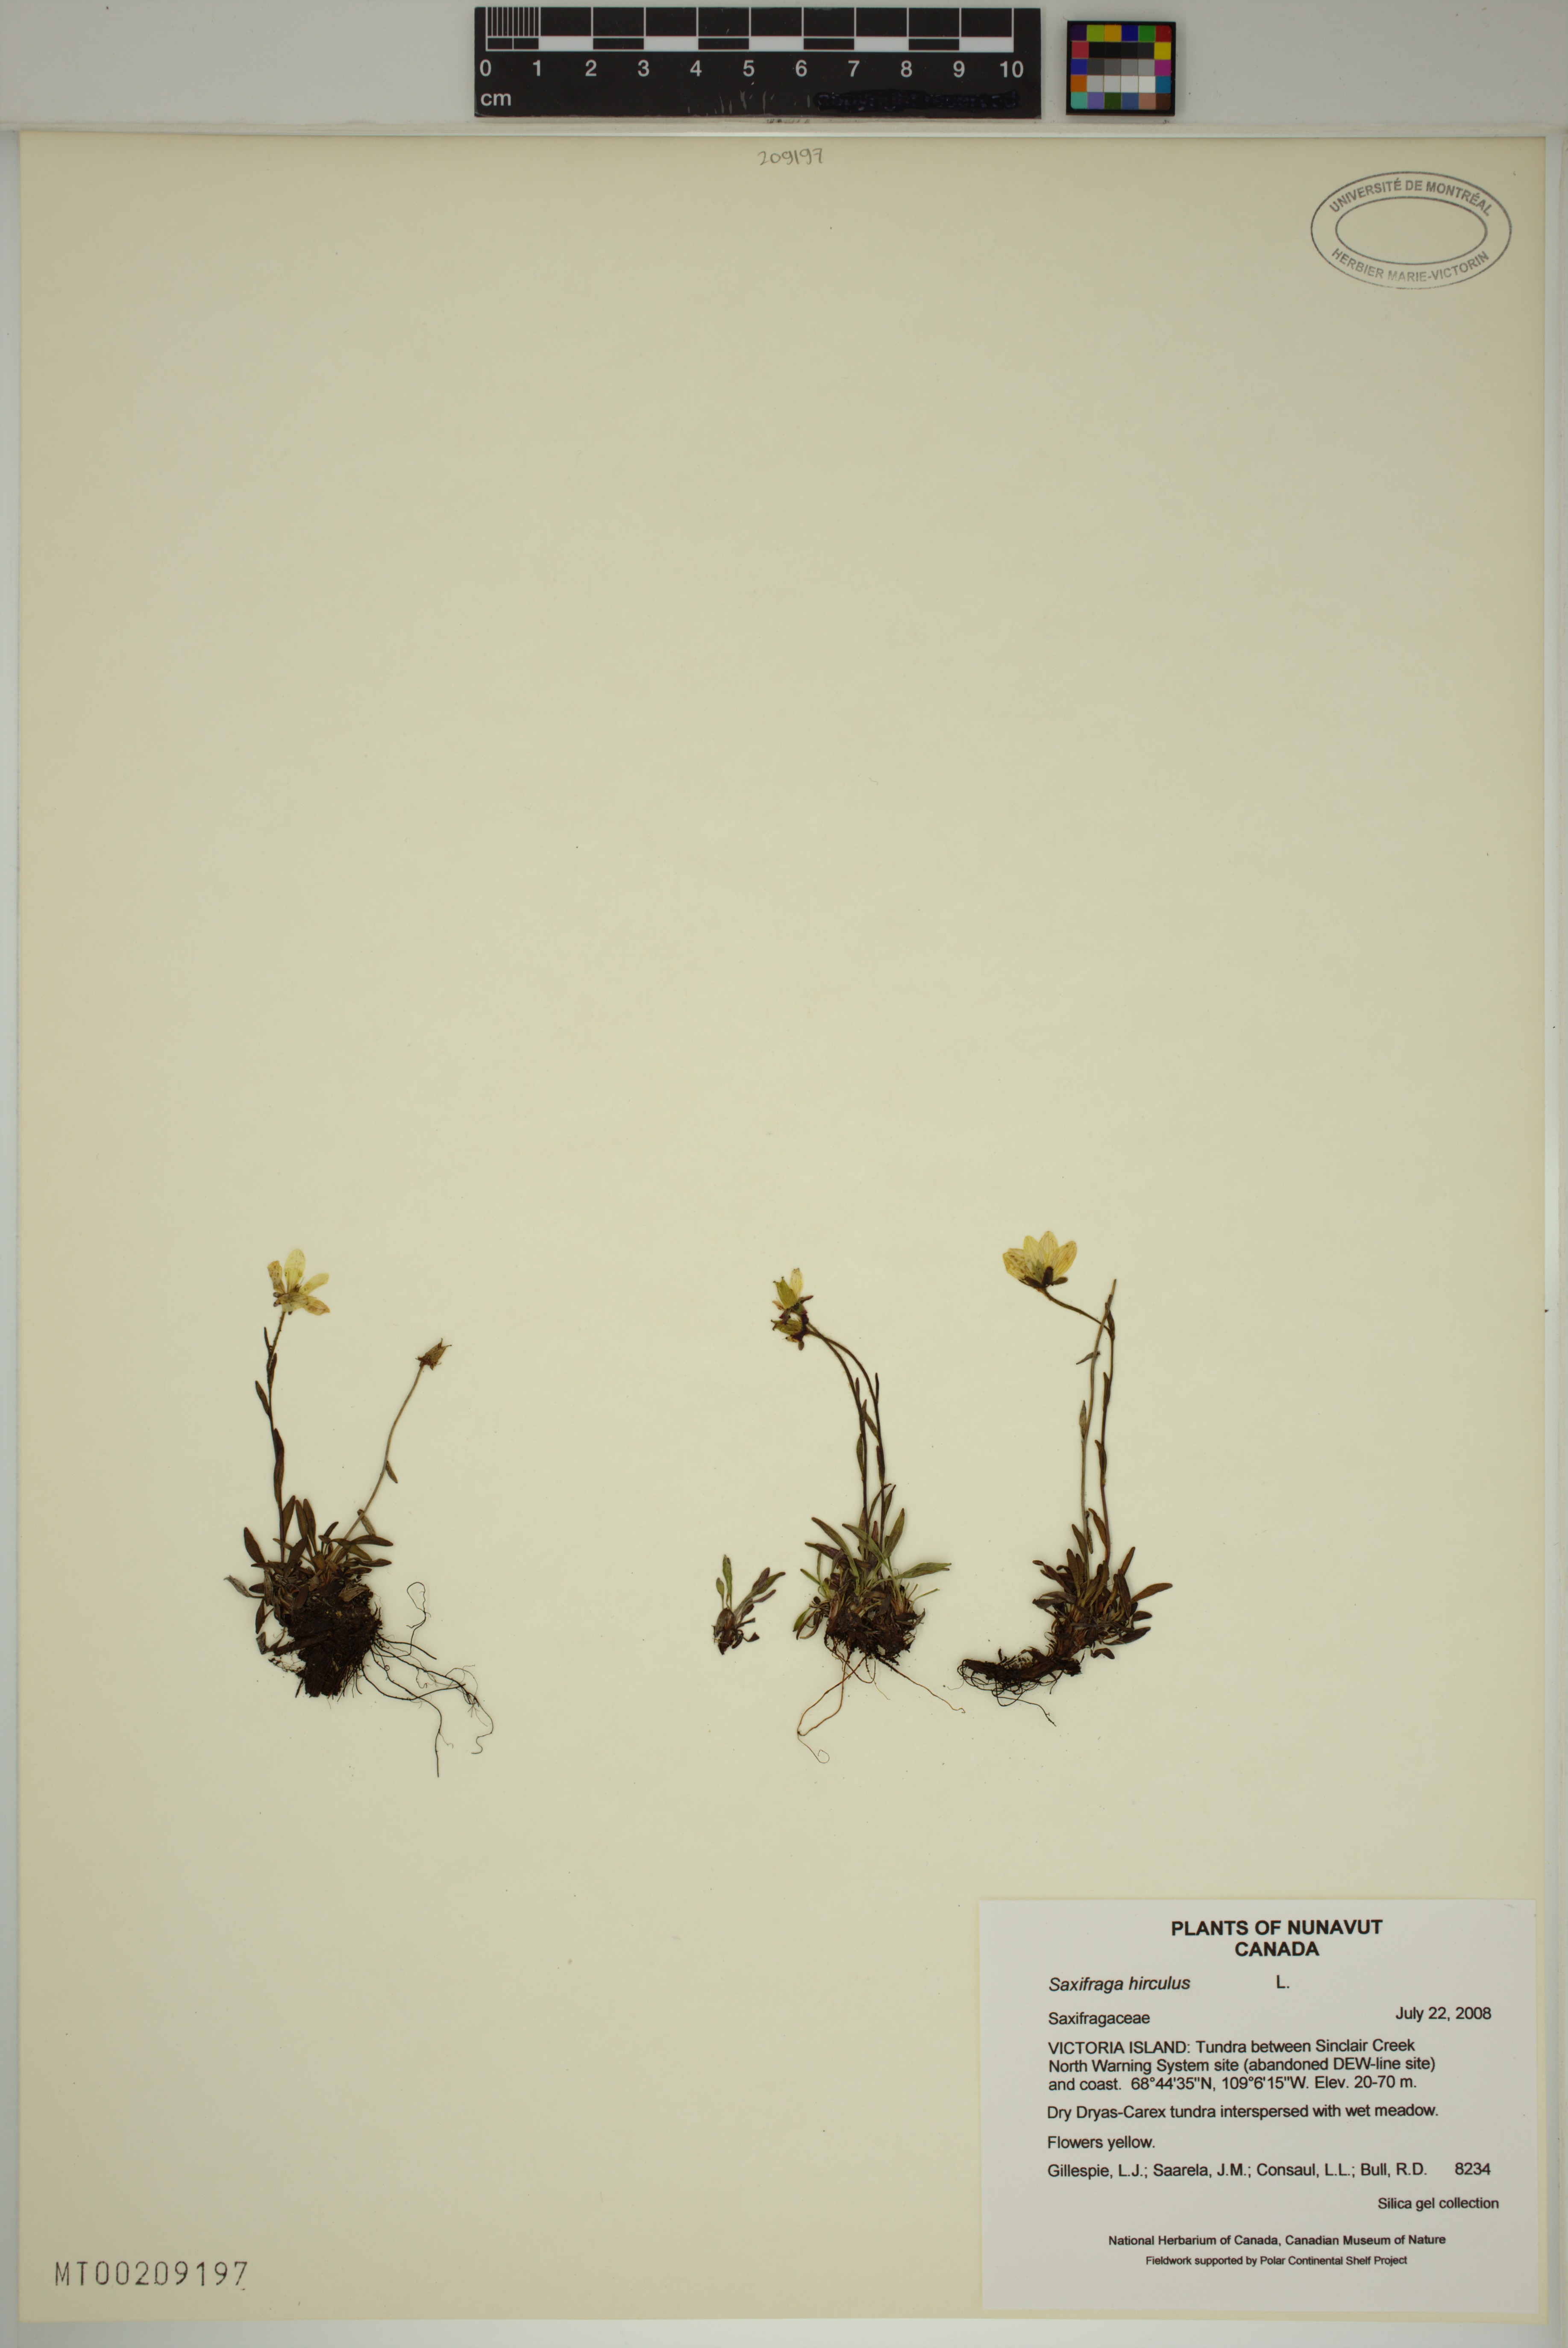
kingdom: Plantae
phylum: Tracheophyta
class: Magnoliopsida
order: Saxifragales
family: Saxifragaceae
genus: Saxifraga
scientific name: Saxifraga hirculus
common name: Yellow marsh saxifrage
